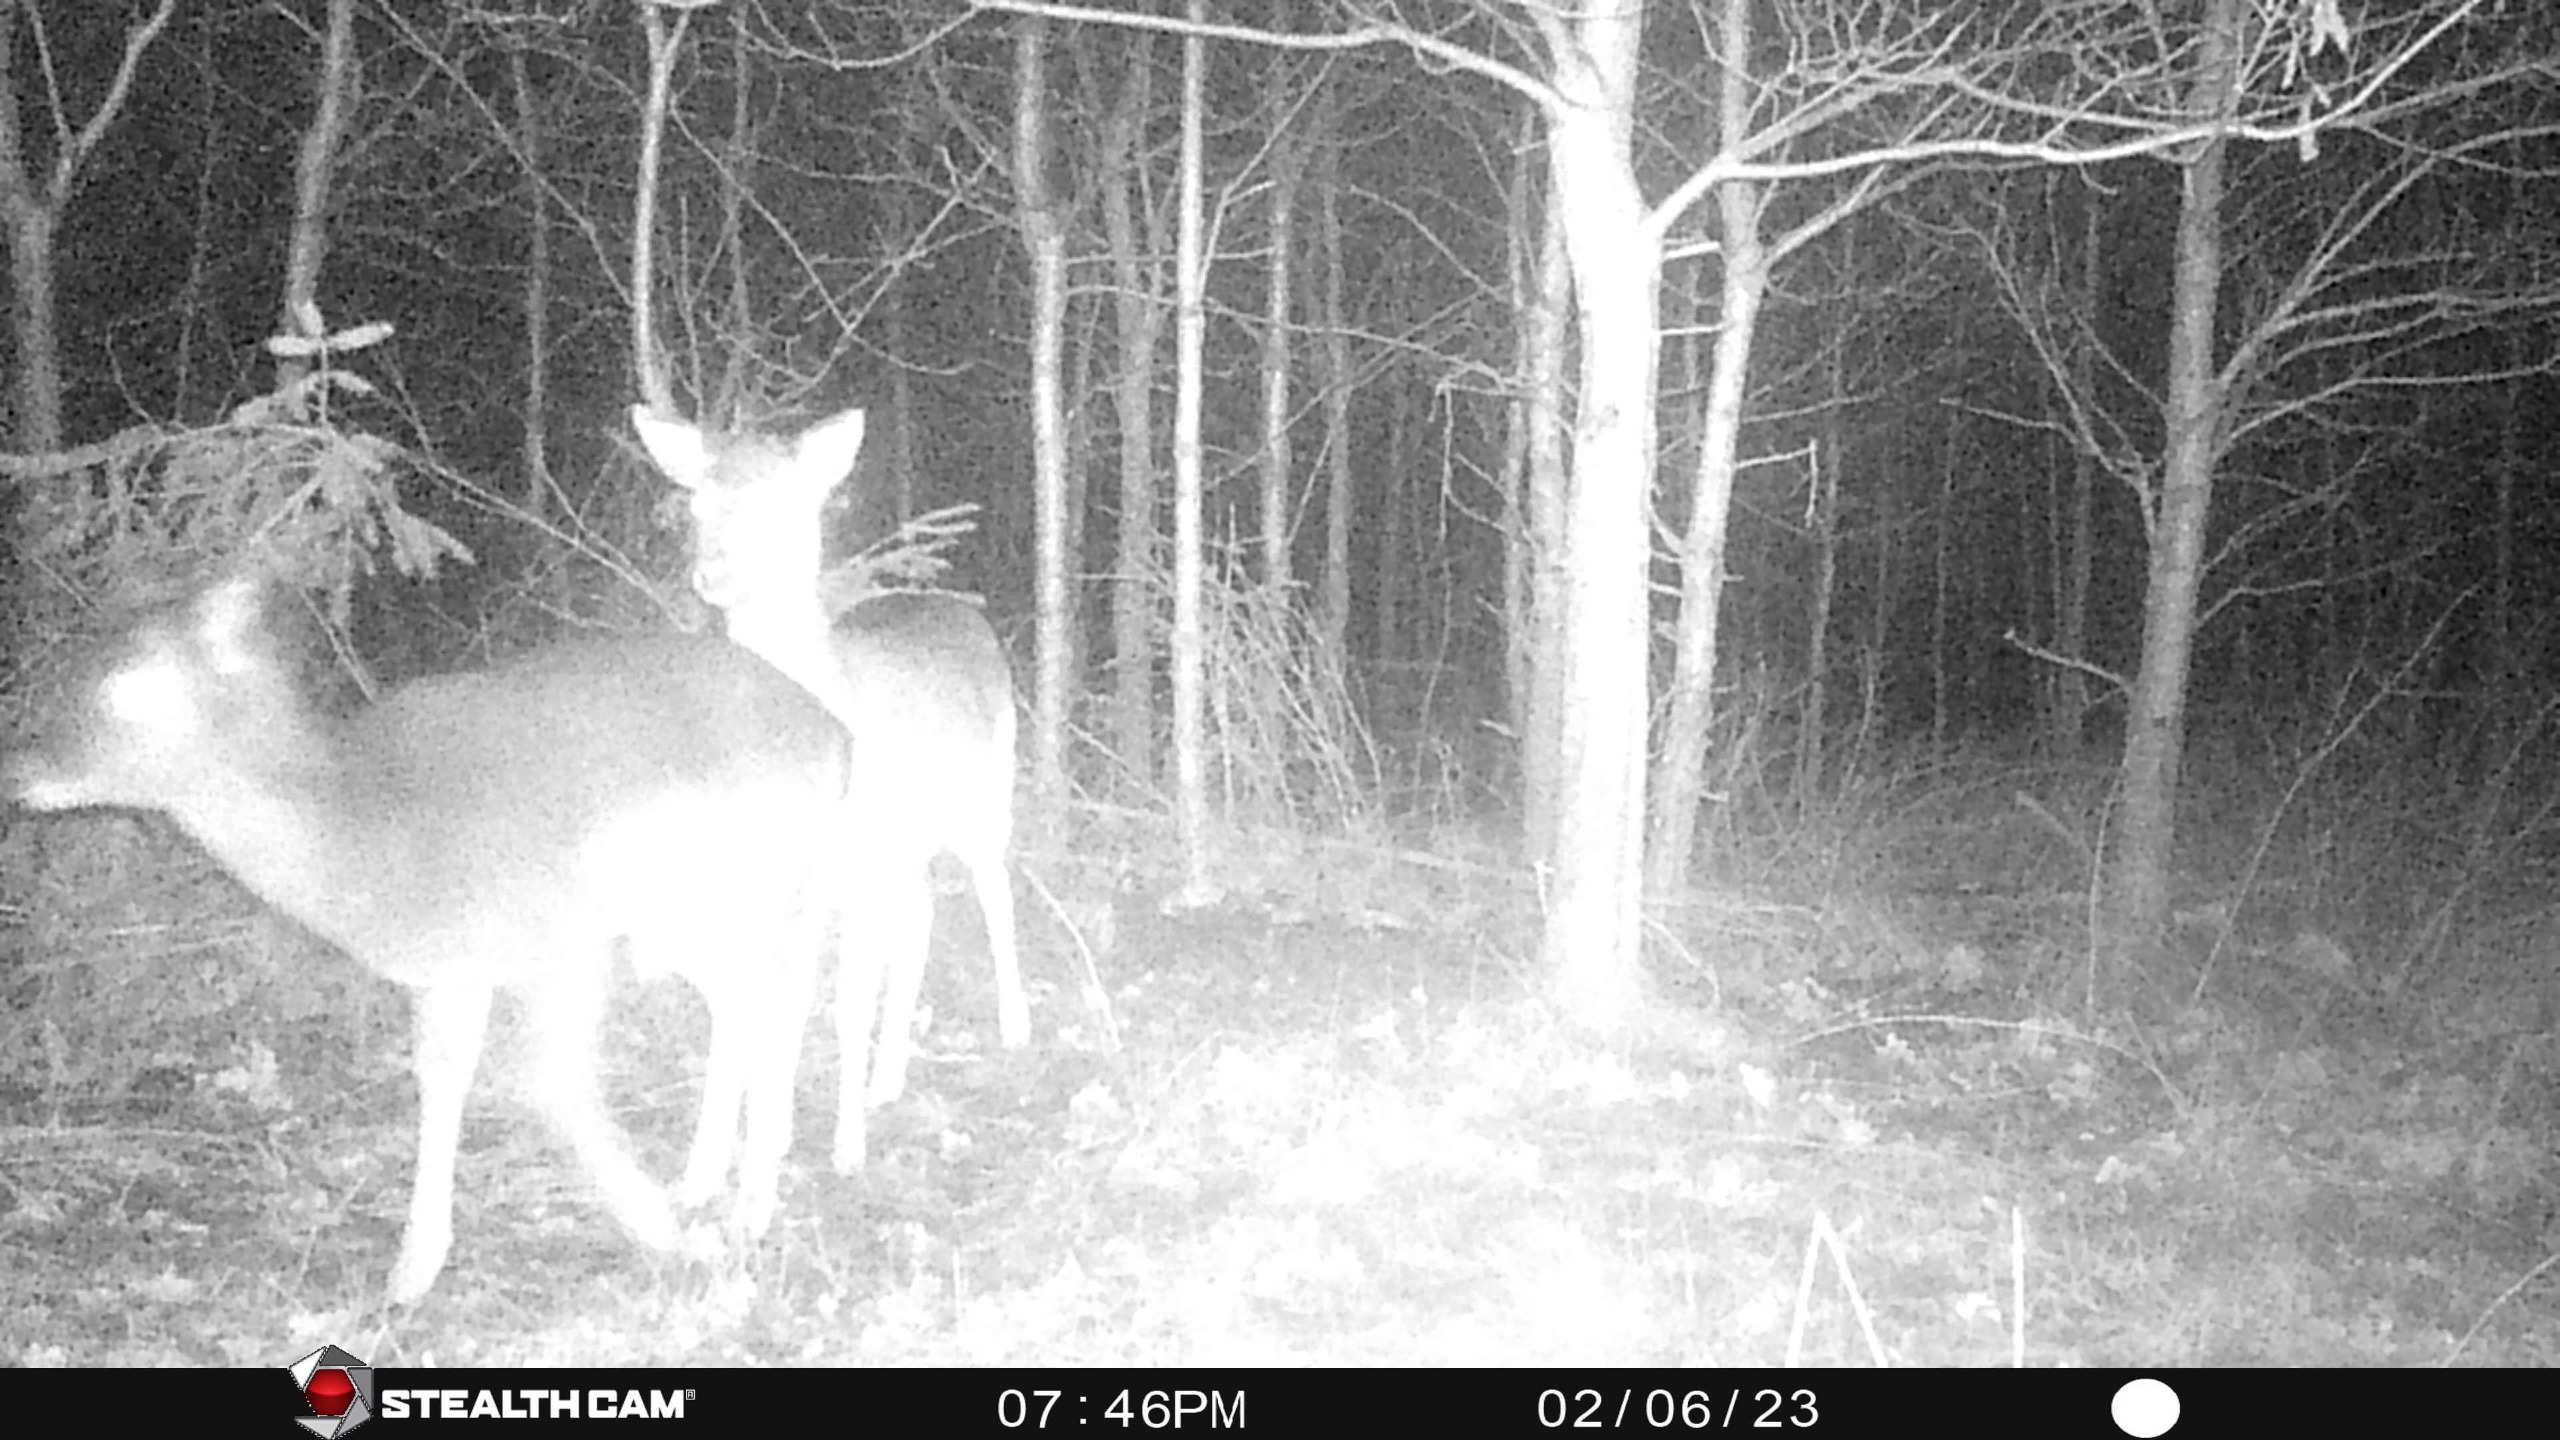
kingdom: Animalia
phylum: Chordata
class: Mammalia
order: Artiodactyla
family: Cervidae
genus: Dama
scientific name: Dama dama
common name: Dådyr
